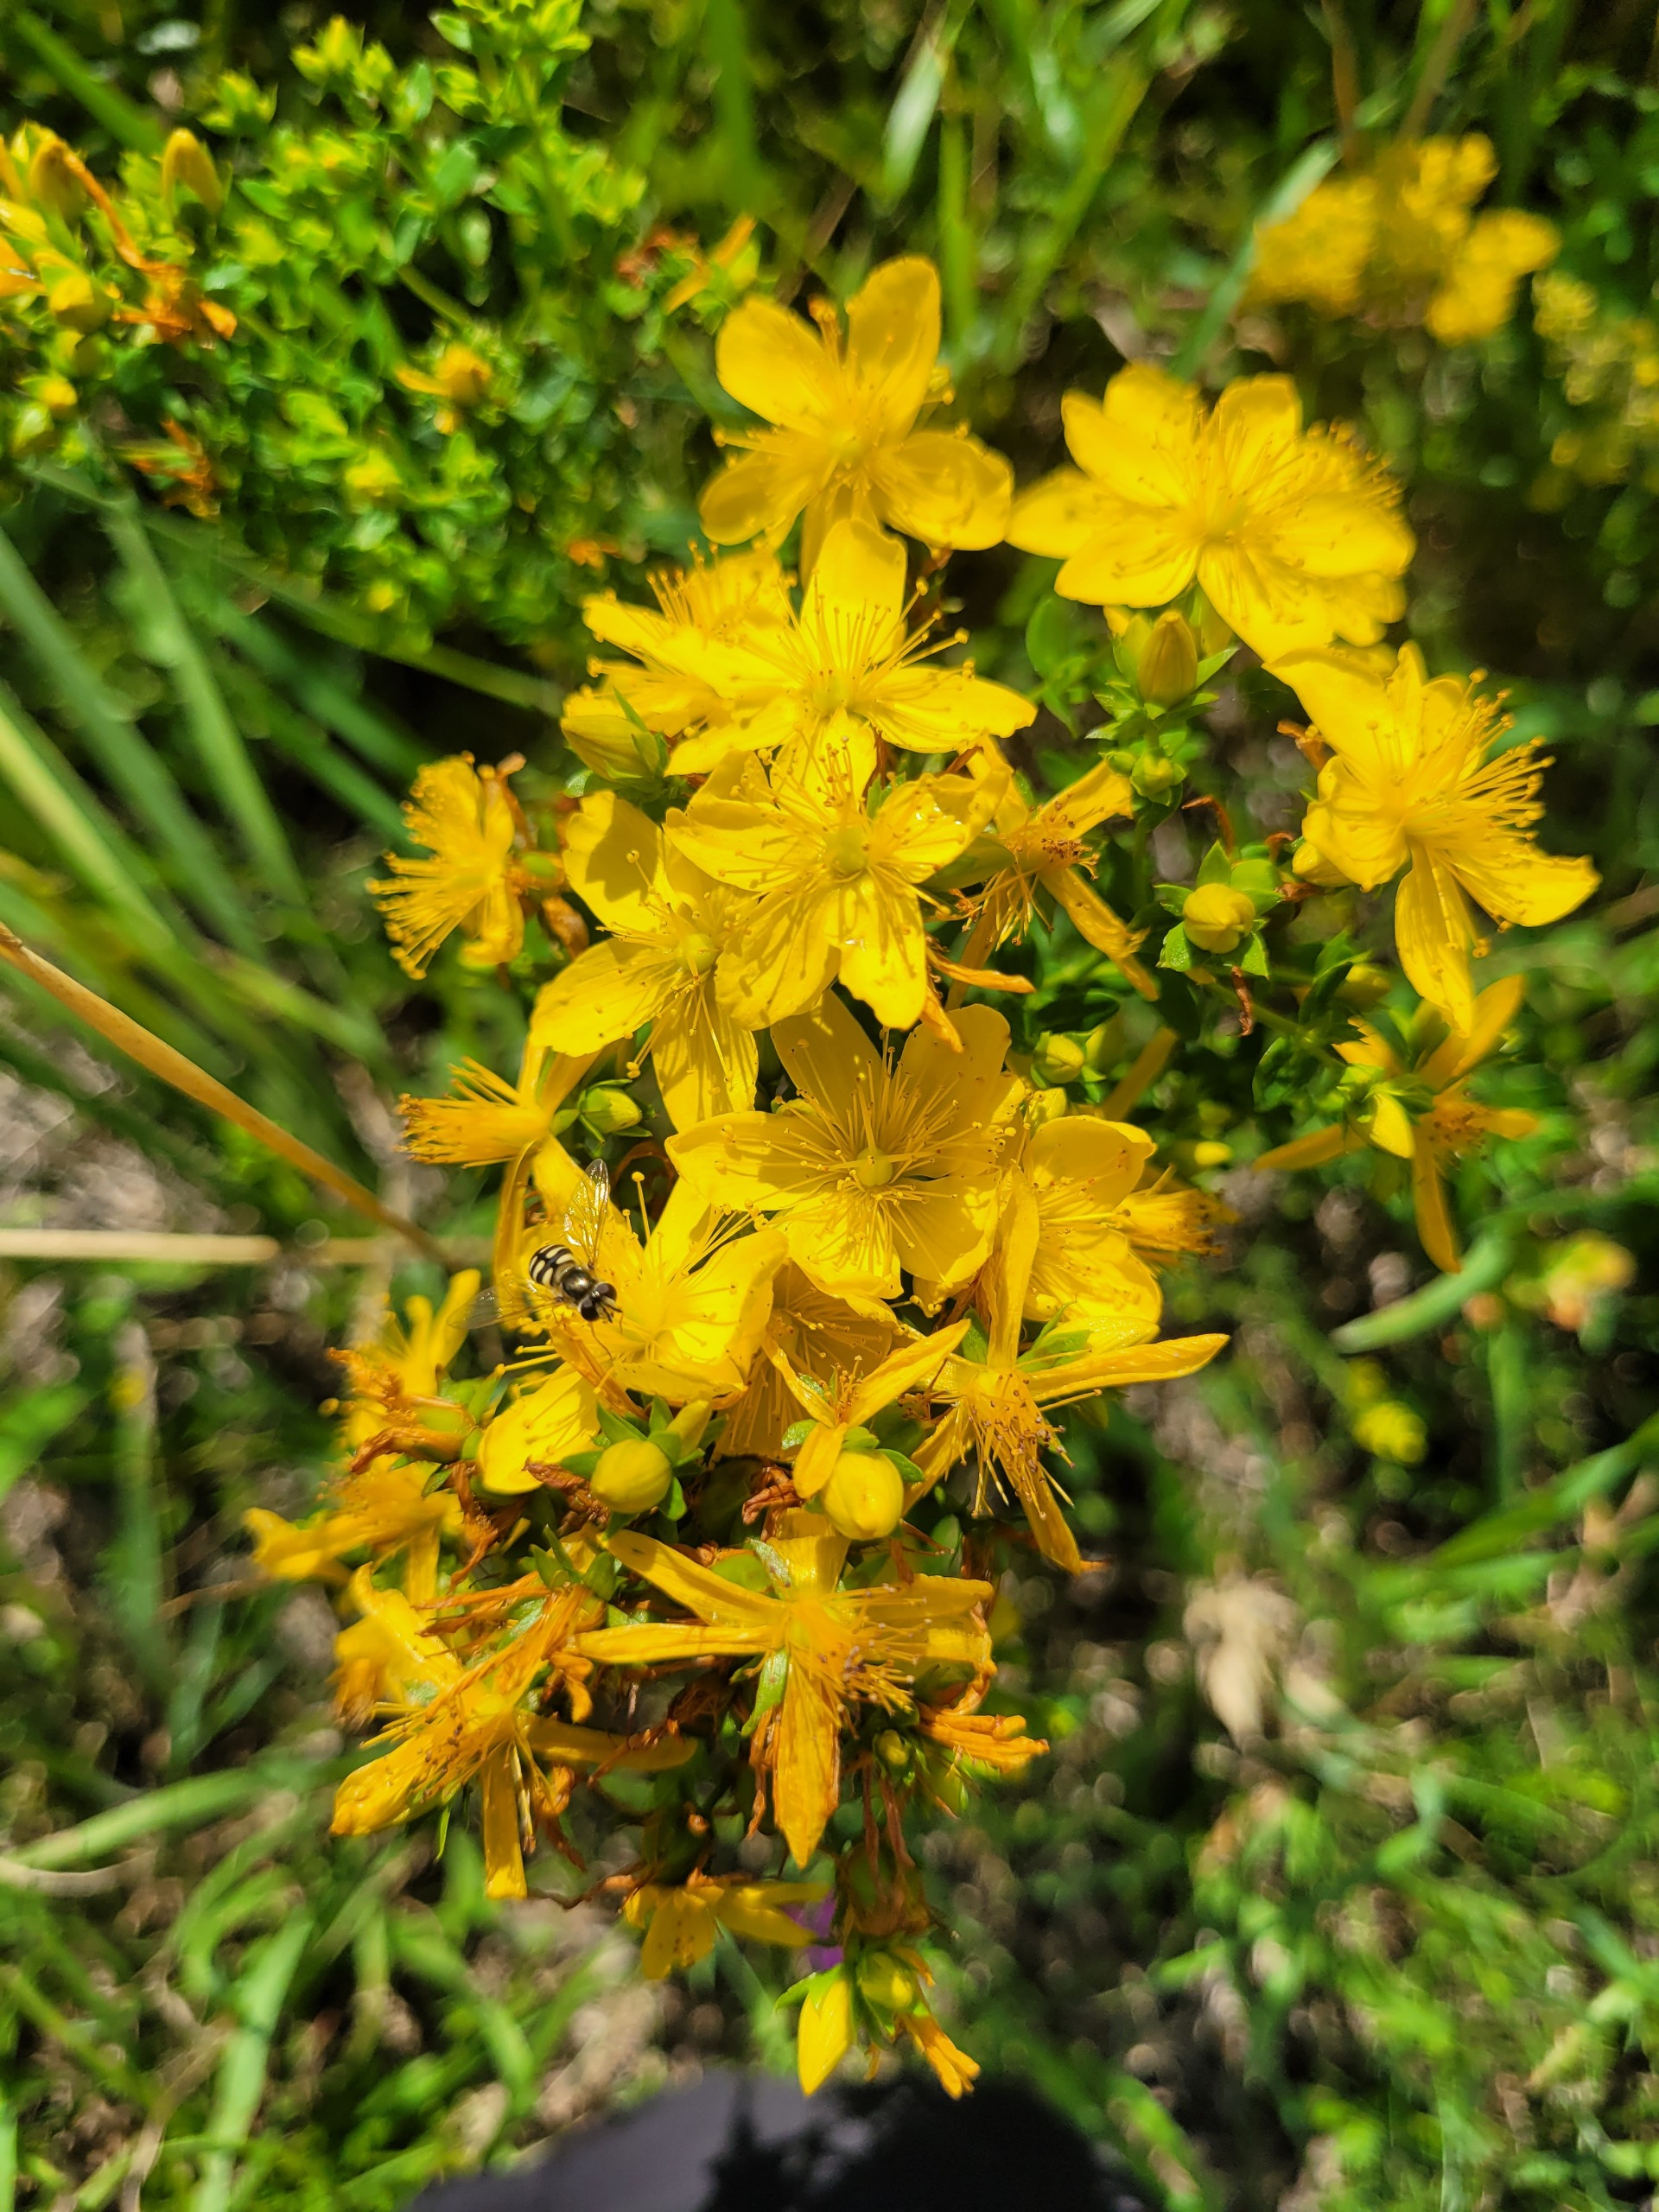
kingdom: Plantae
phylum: Tracheophyta
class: Magnoliopsida
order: Malpighiales
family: Hypericaceae
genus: Hypericum
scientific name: Hypericum perforatum
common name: Prikbladet perikon
